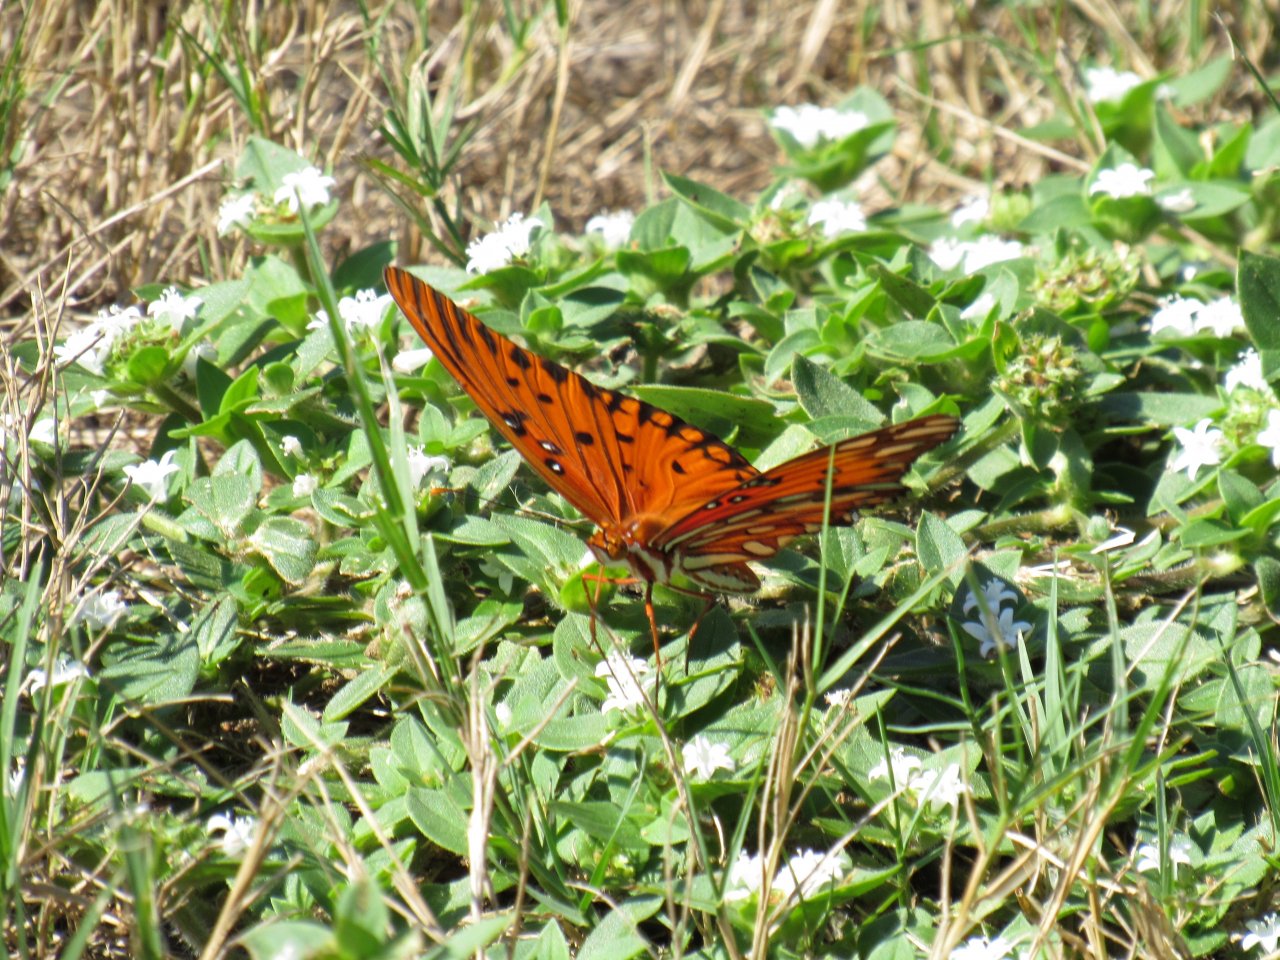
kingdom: Animalia
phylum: Arthropoda
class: Insecta
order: Lepidoptera
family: Nymphalidae
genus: Dione
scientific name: Dione vanillae
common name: Gulf Fritillary
